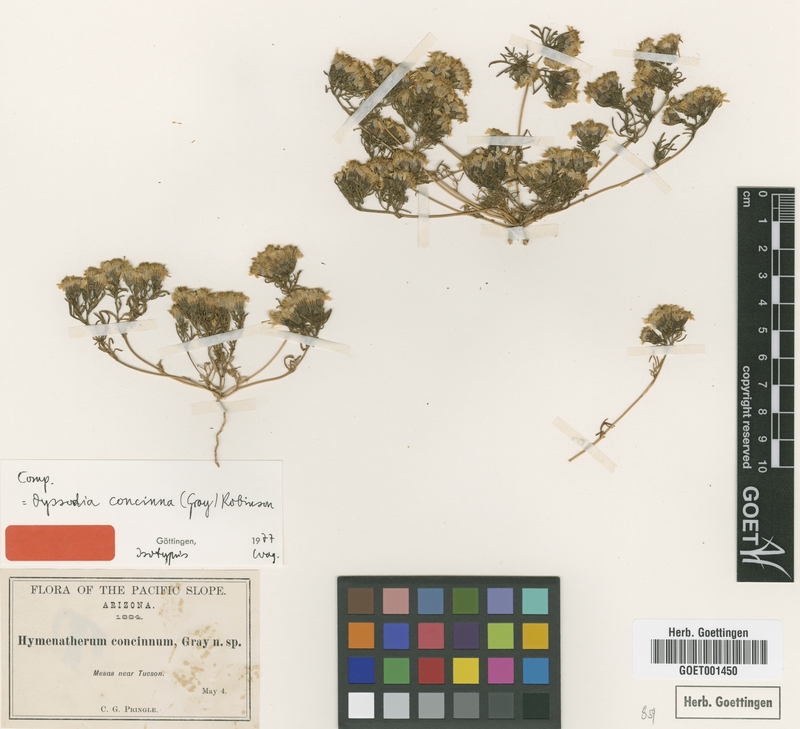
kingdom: Plantae
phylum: Tracheophyta
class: Magnoliopsida
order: Asterales
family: Asteraceae
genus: Thymophylla
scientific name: Thymophylla concinna
